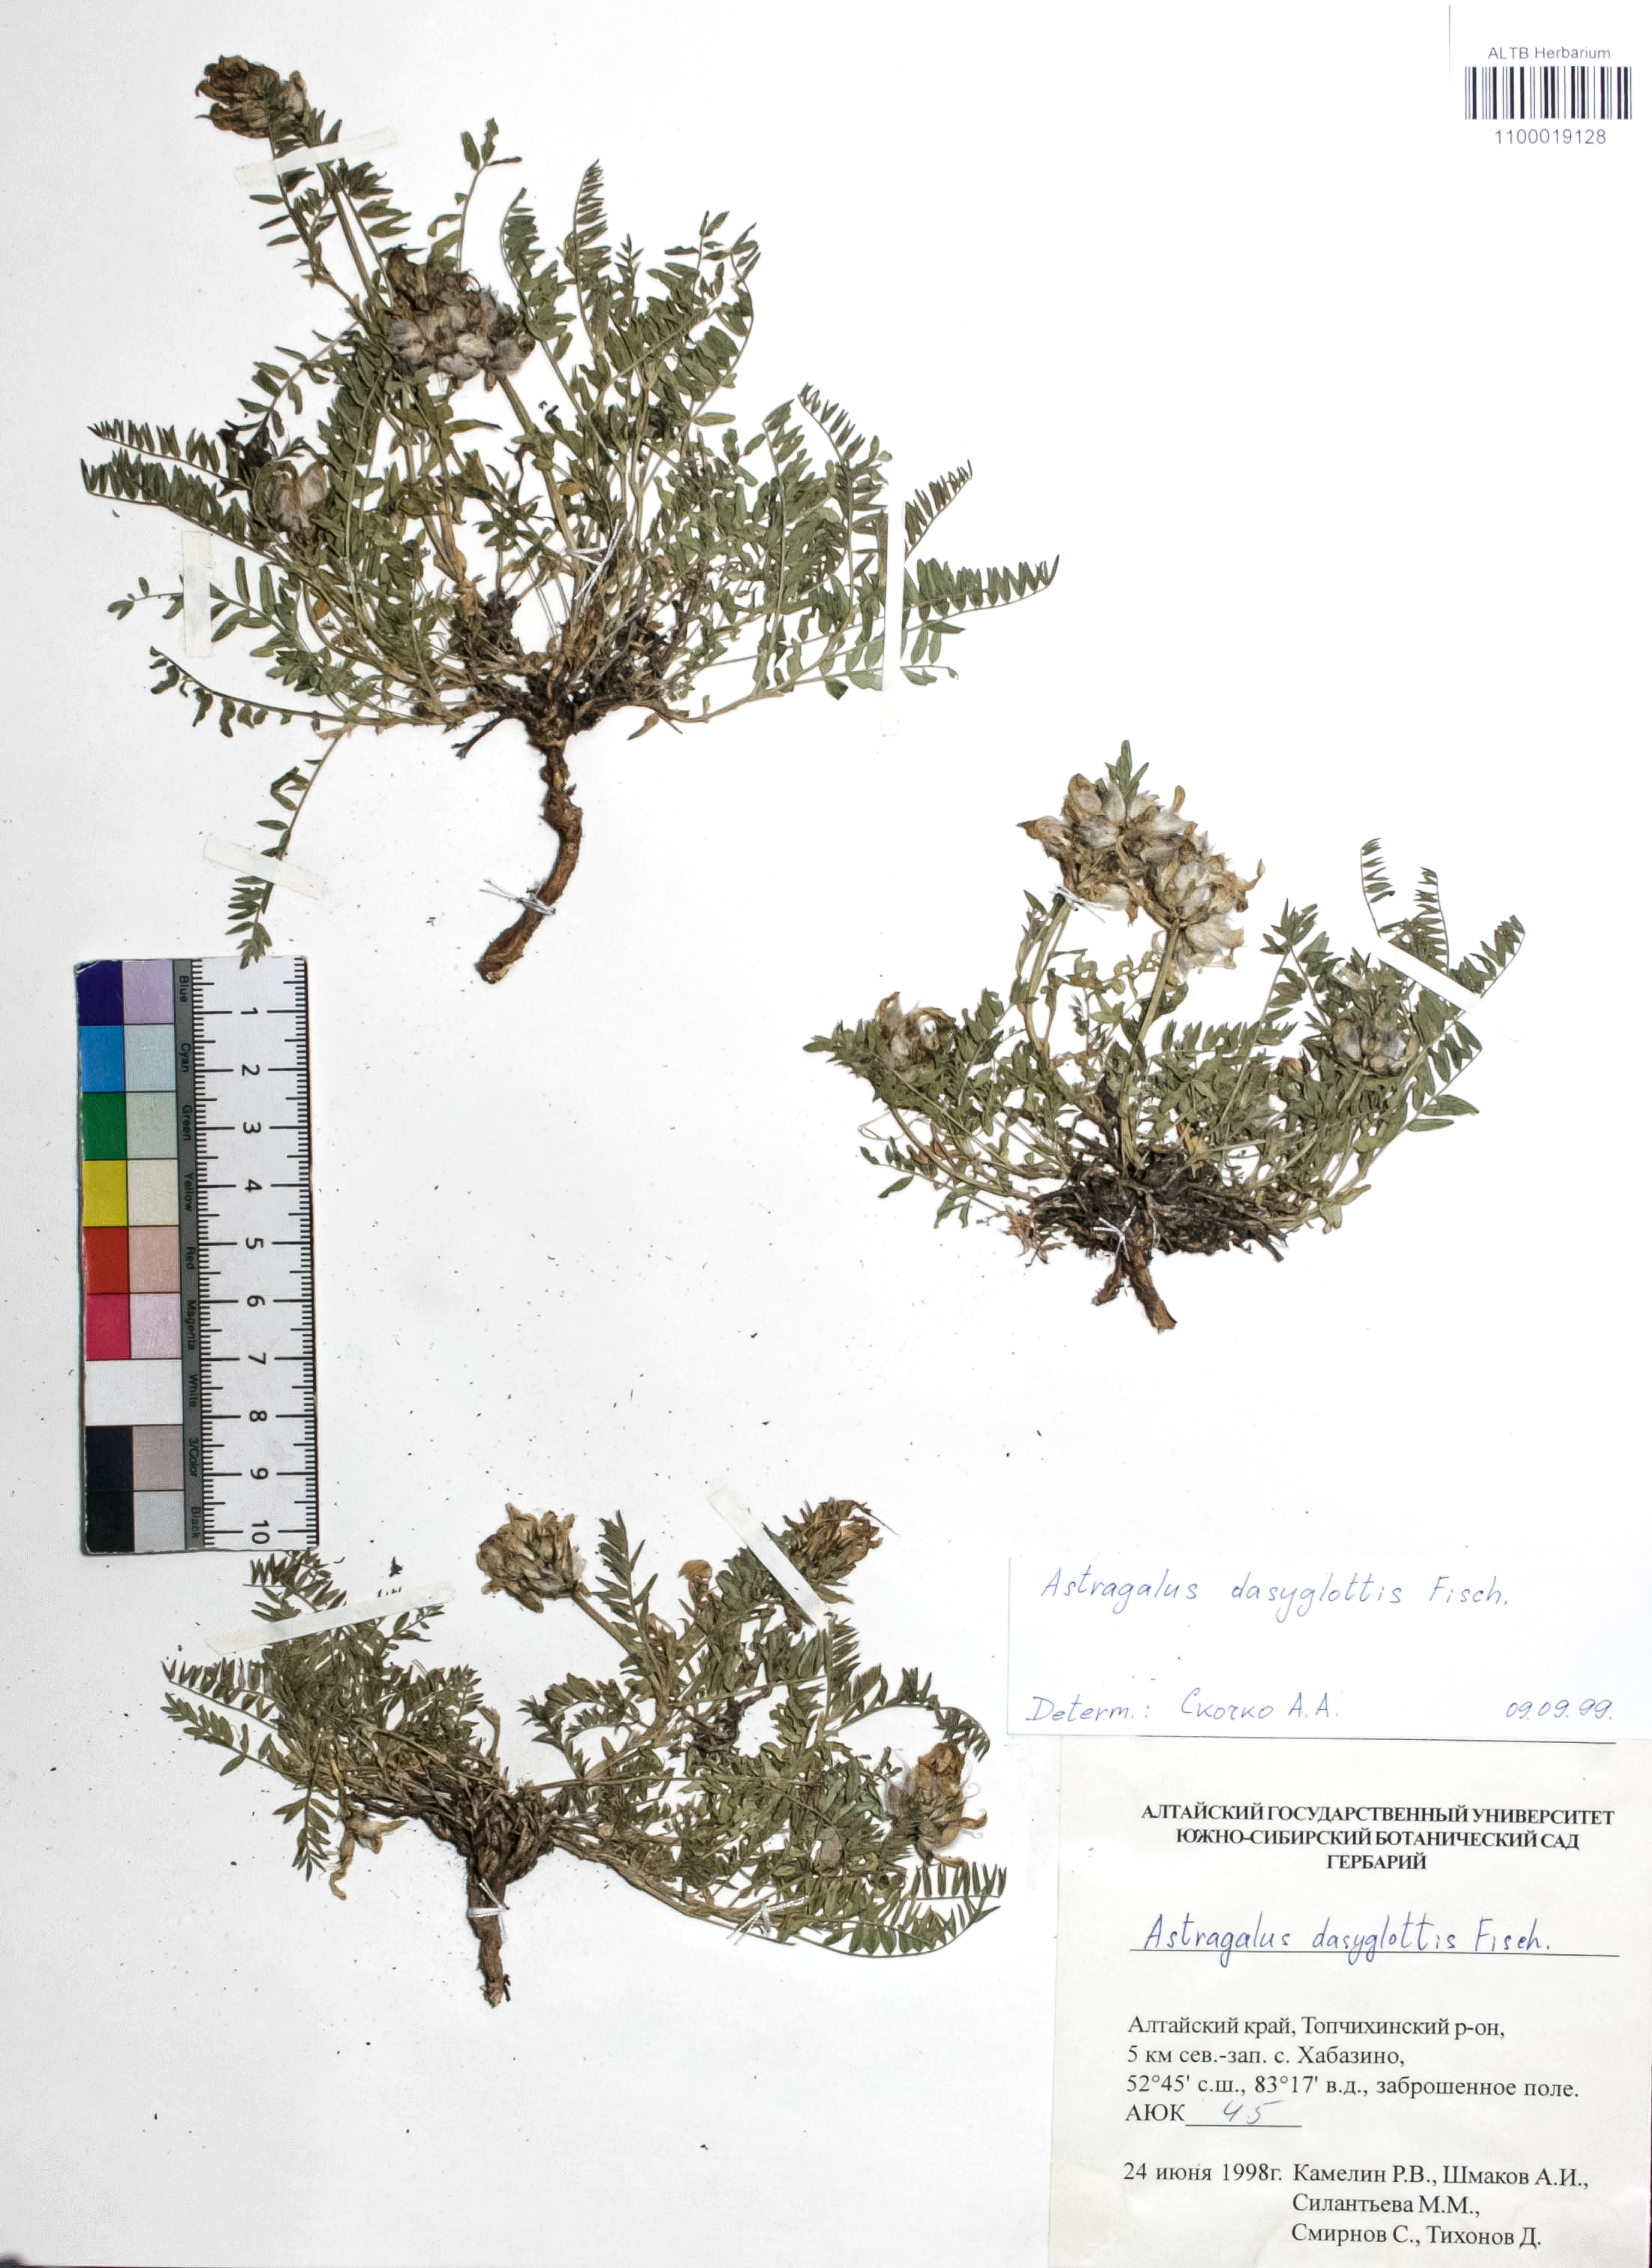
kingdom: Plantae
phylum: Tracheophyta
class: Magnoliopsida
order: Fabales
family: Fabaceae
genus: Astragalus
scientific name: Astragalus agrestis
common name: Field milk-vetch
